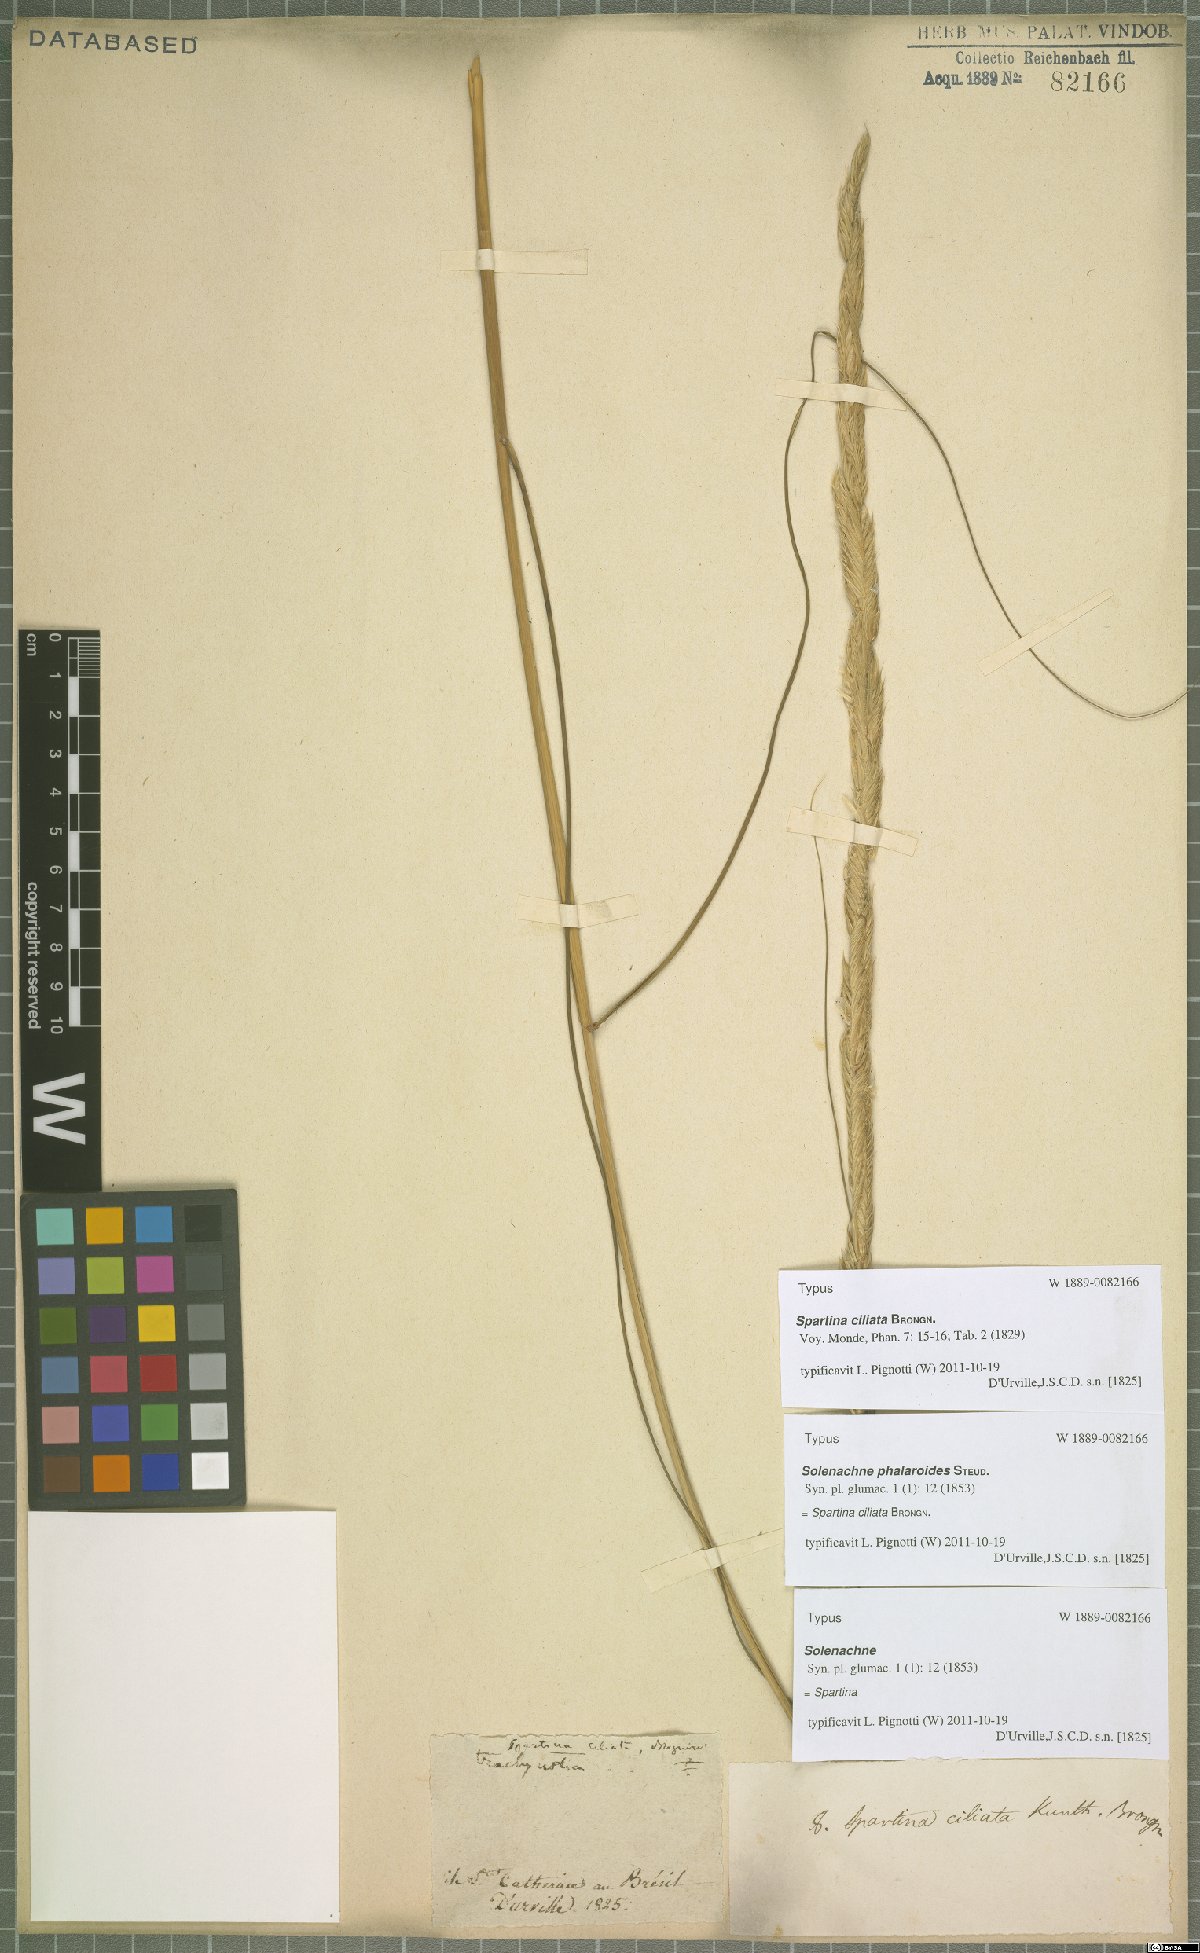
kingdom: Plantae
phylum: Tracheophyta
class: Liliopsida
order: Poales
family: Poaceae
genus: Sporobolus
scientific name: Sporobolus coarctatus
